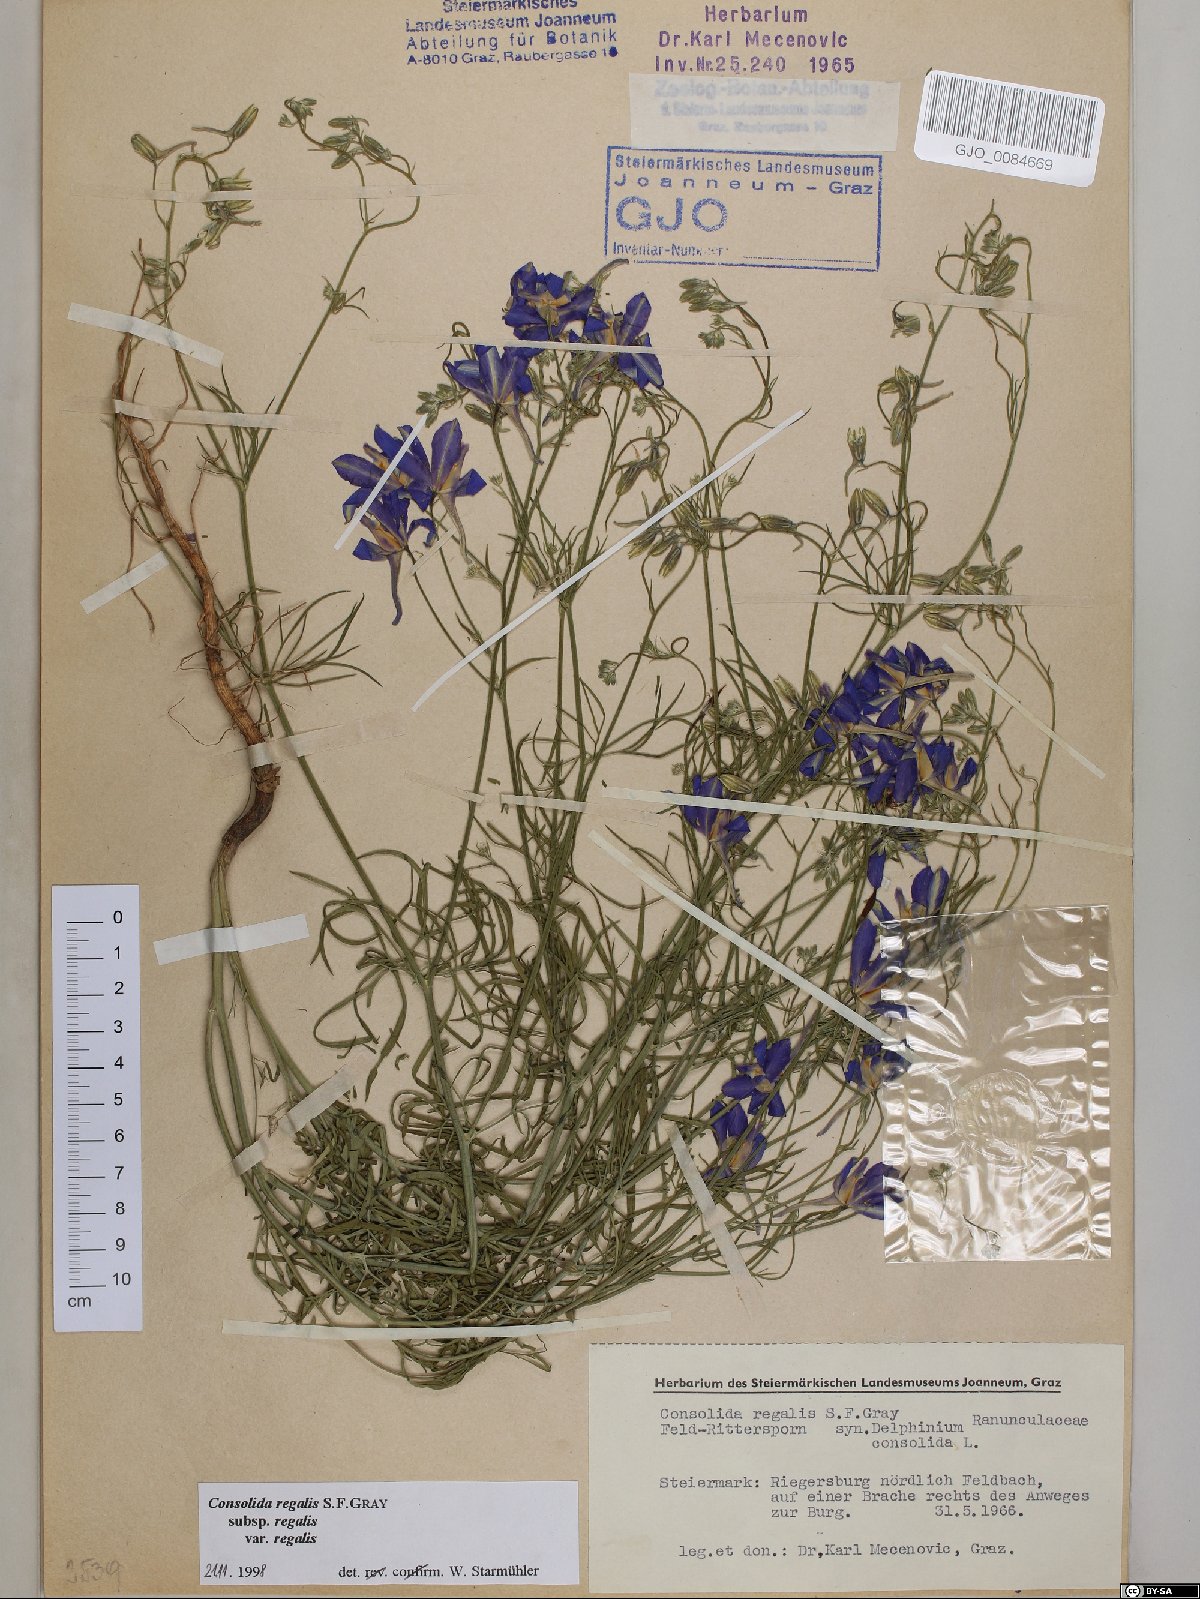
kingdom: Plantae
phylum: Tracheophyta
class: Magnoliopsida
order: Ranunculales
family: Ranunculaceae
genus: Delphinium
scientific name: Delphinium consolida
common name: Branching larkspur
